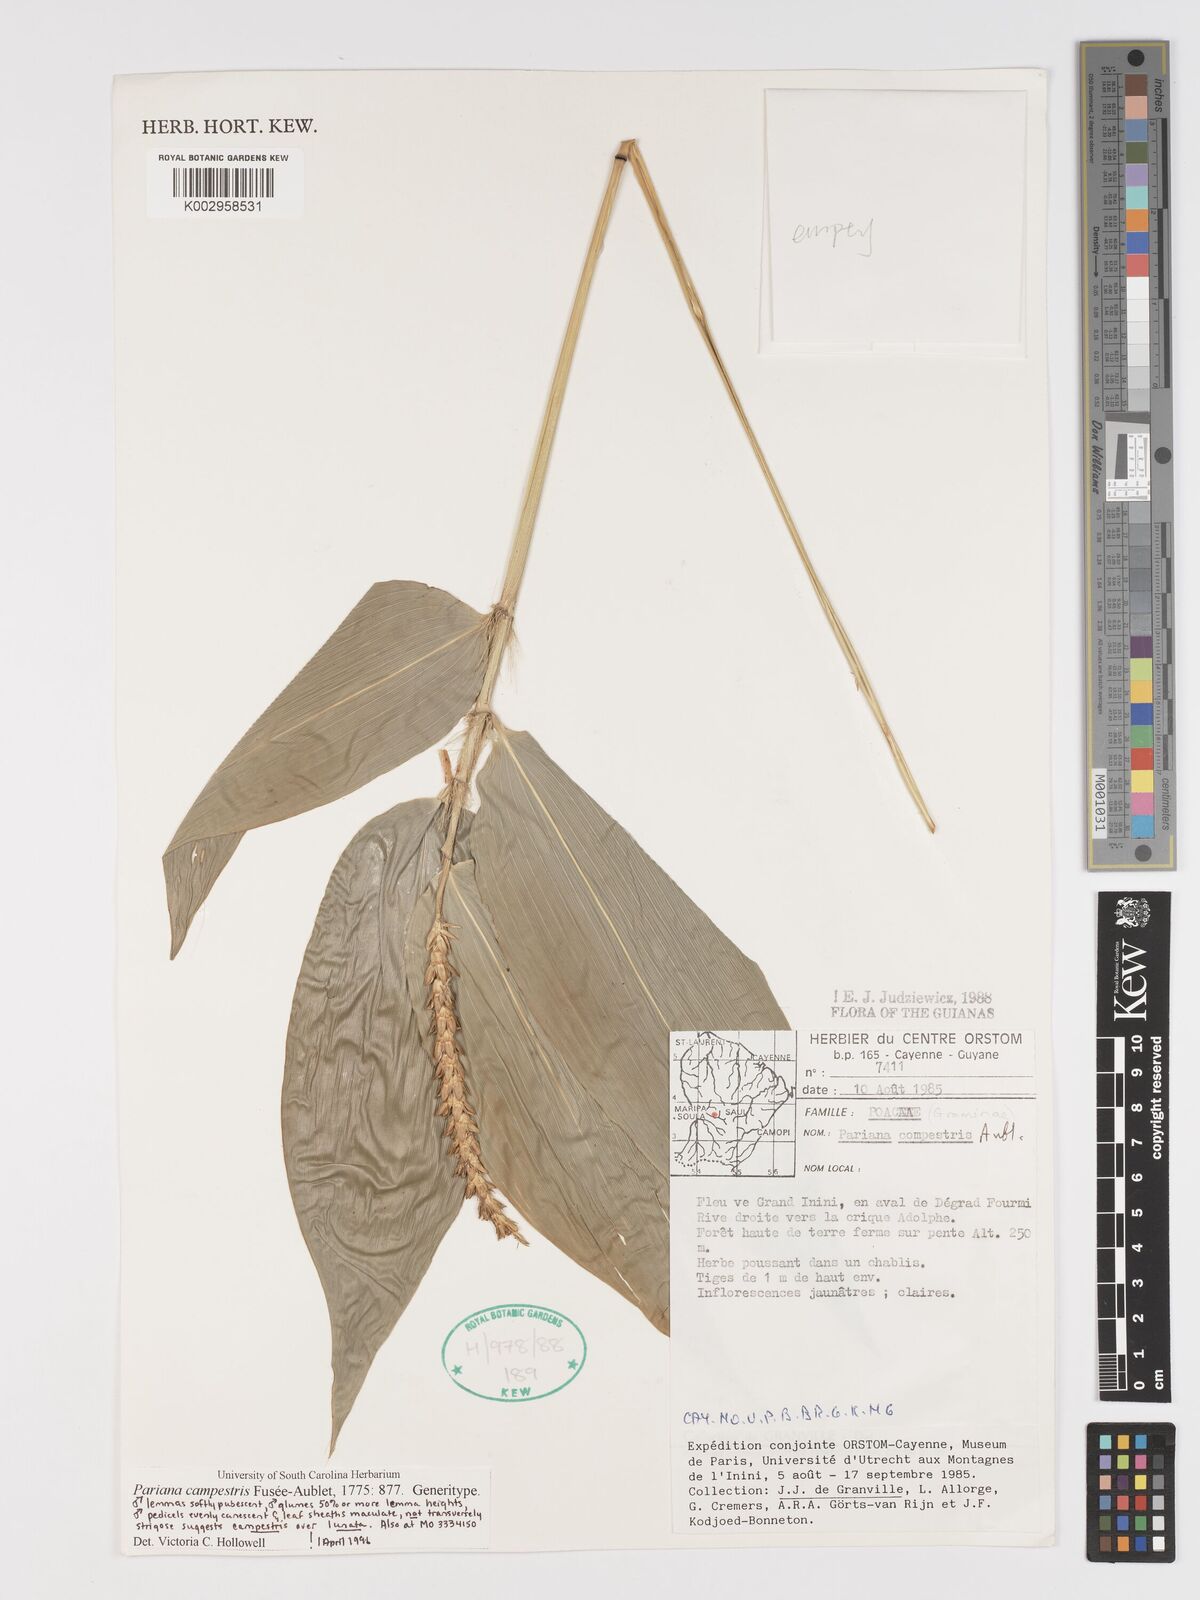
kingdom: Plantae
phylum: Tracheophyta
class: Liliopsida
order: Poales
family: Poaceae
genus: Pariana
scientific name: Pariana campestris
